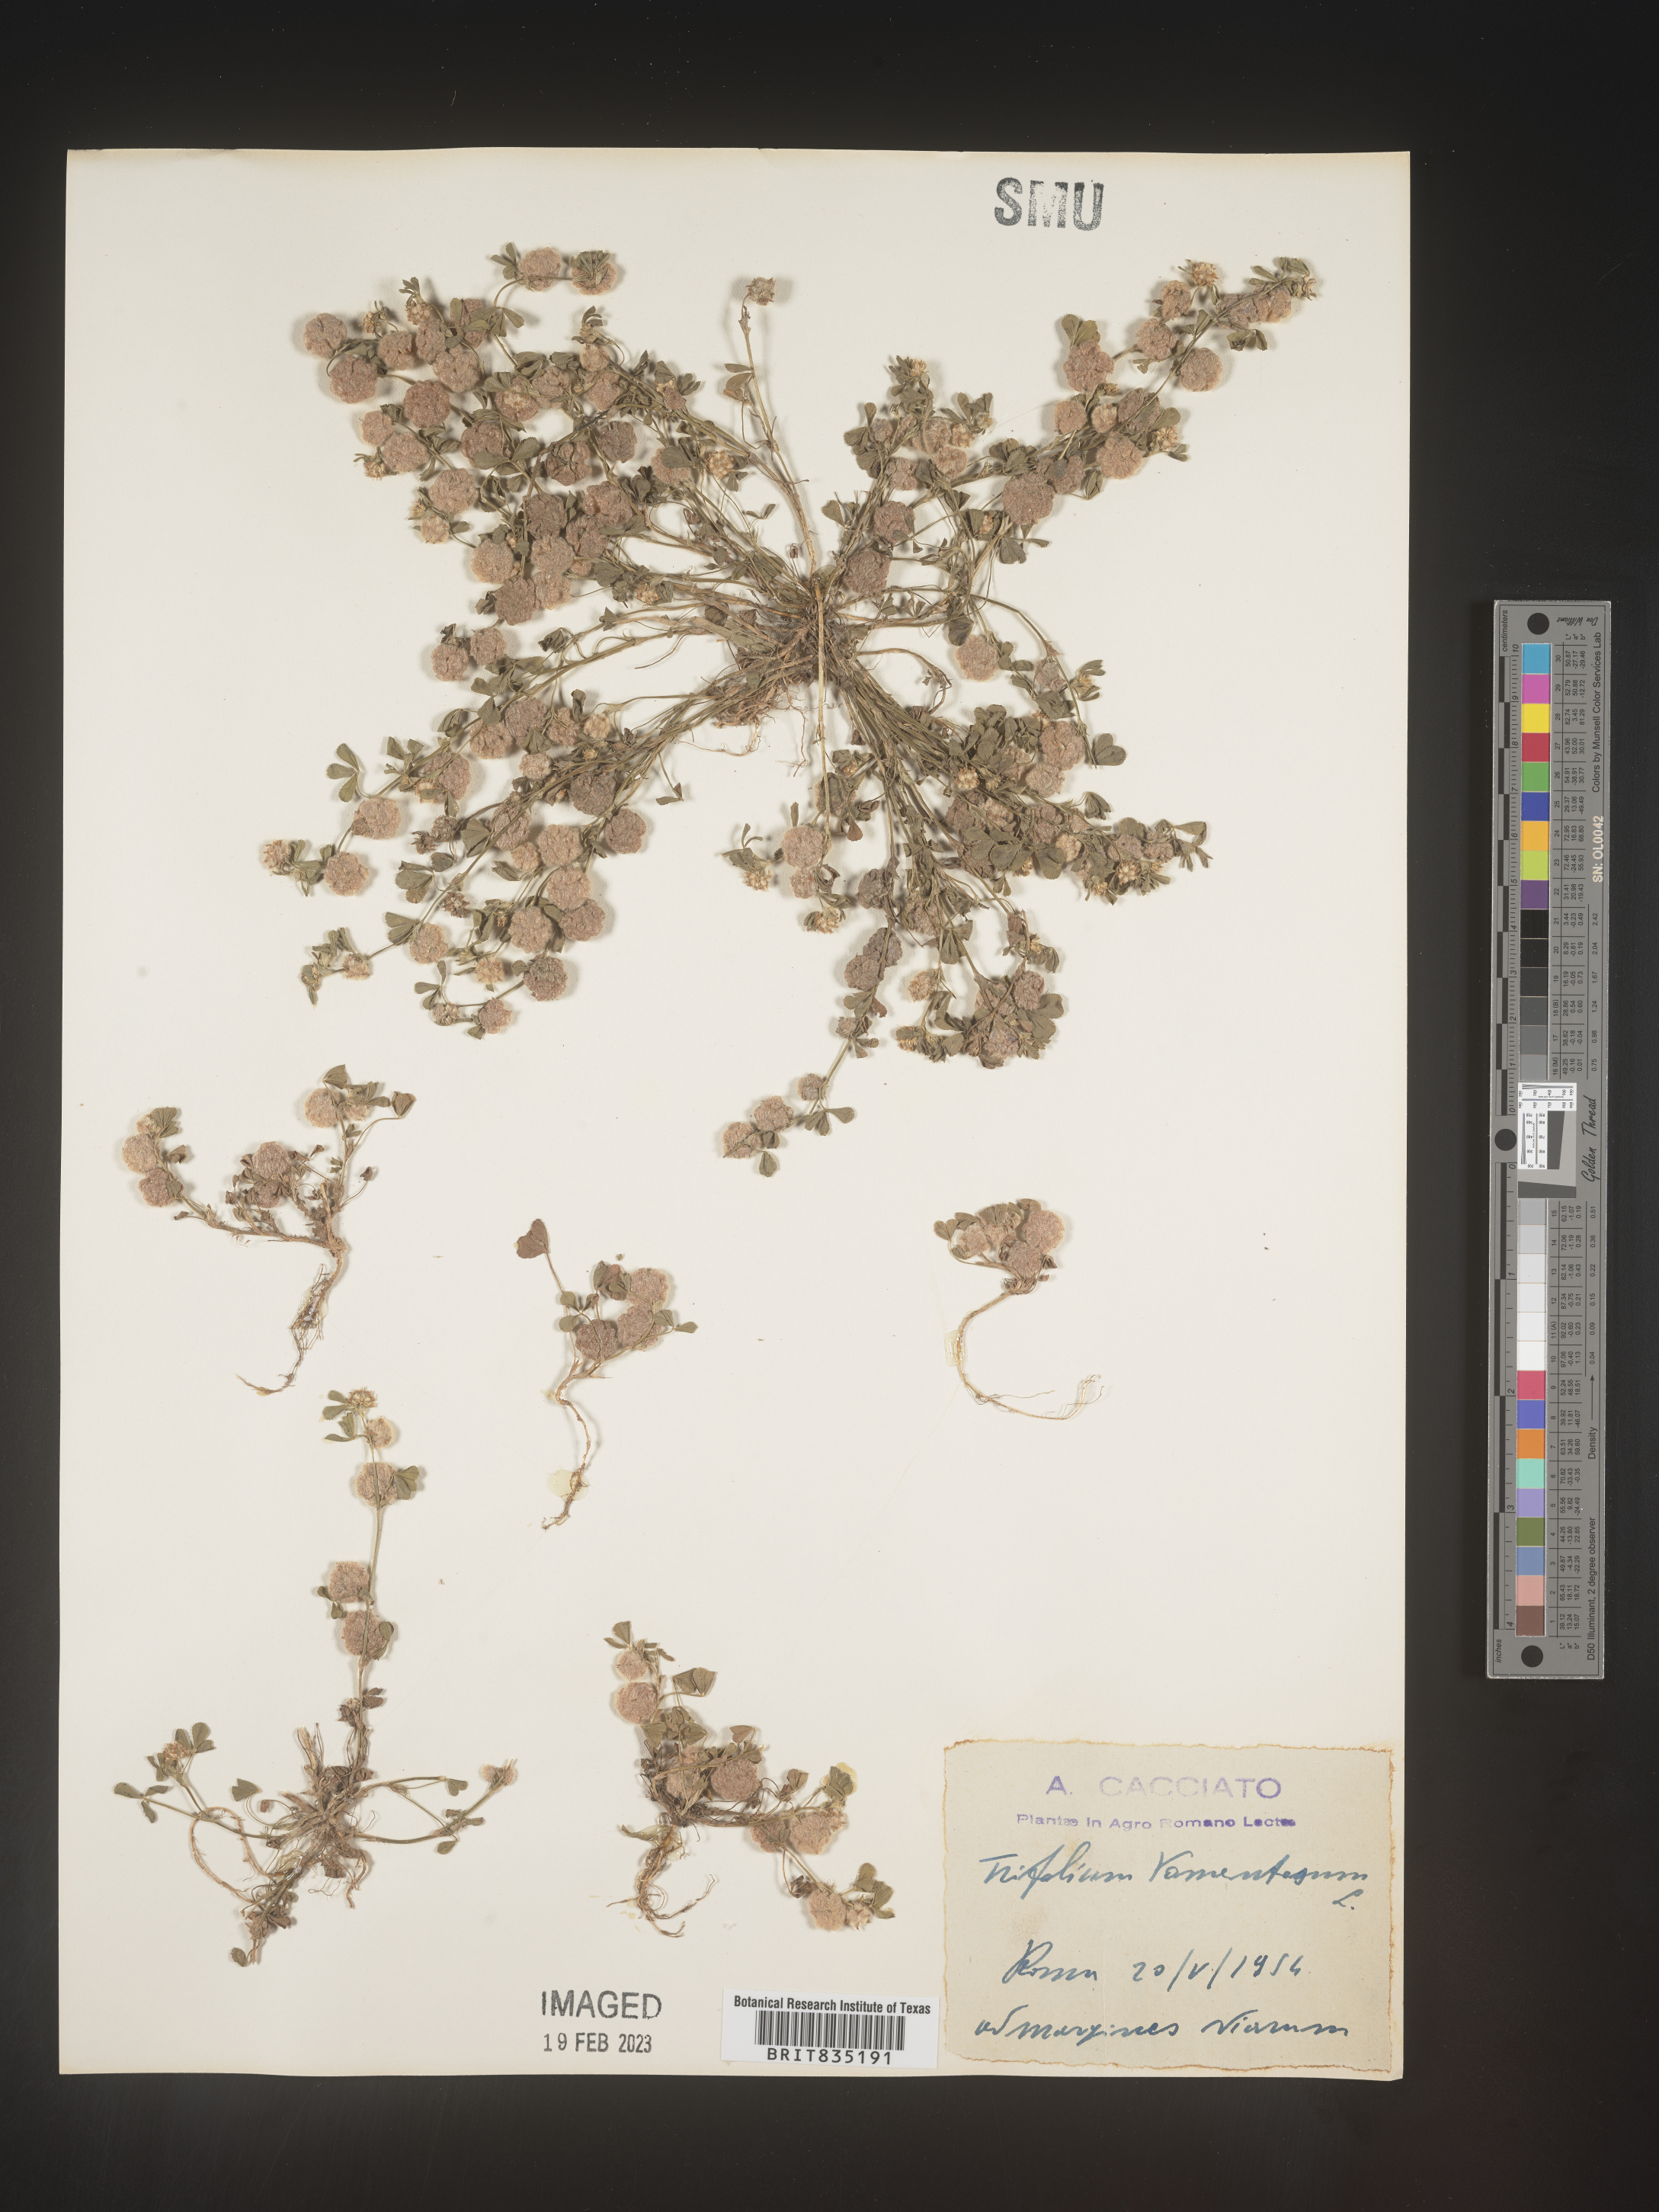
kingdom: Plantae
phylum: Tracheophyta
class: Magnoliopsida
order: Fabales
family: Fabaceae
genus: Trifolium
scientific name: Trifolium
